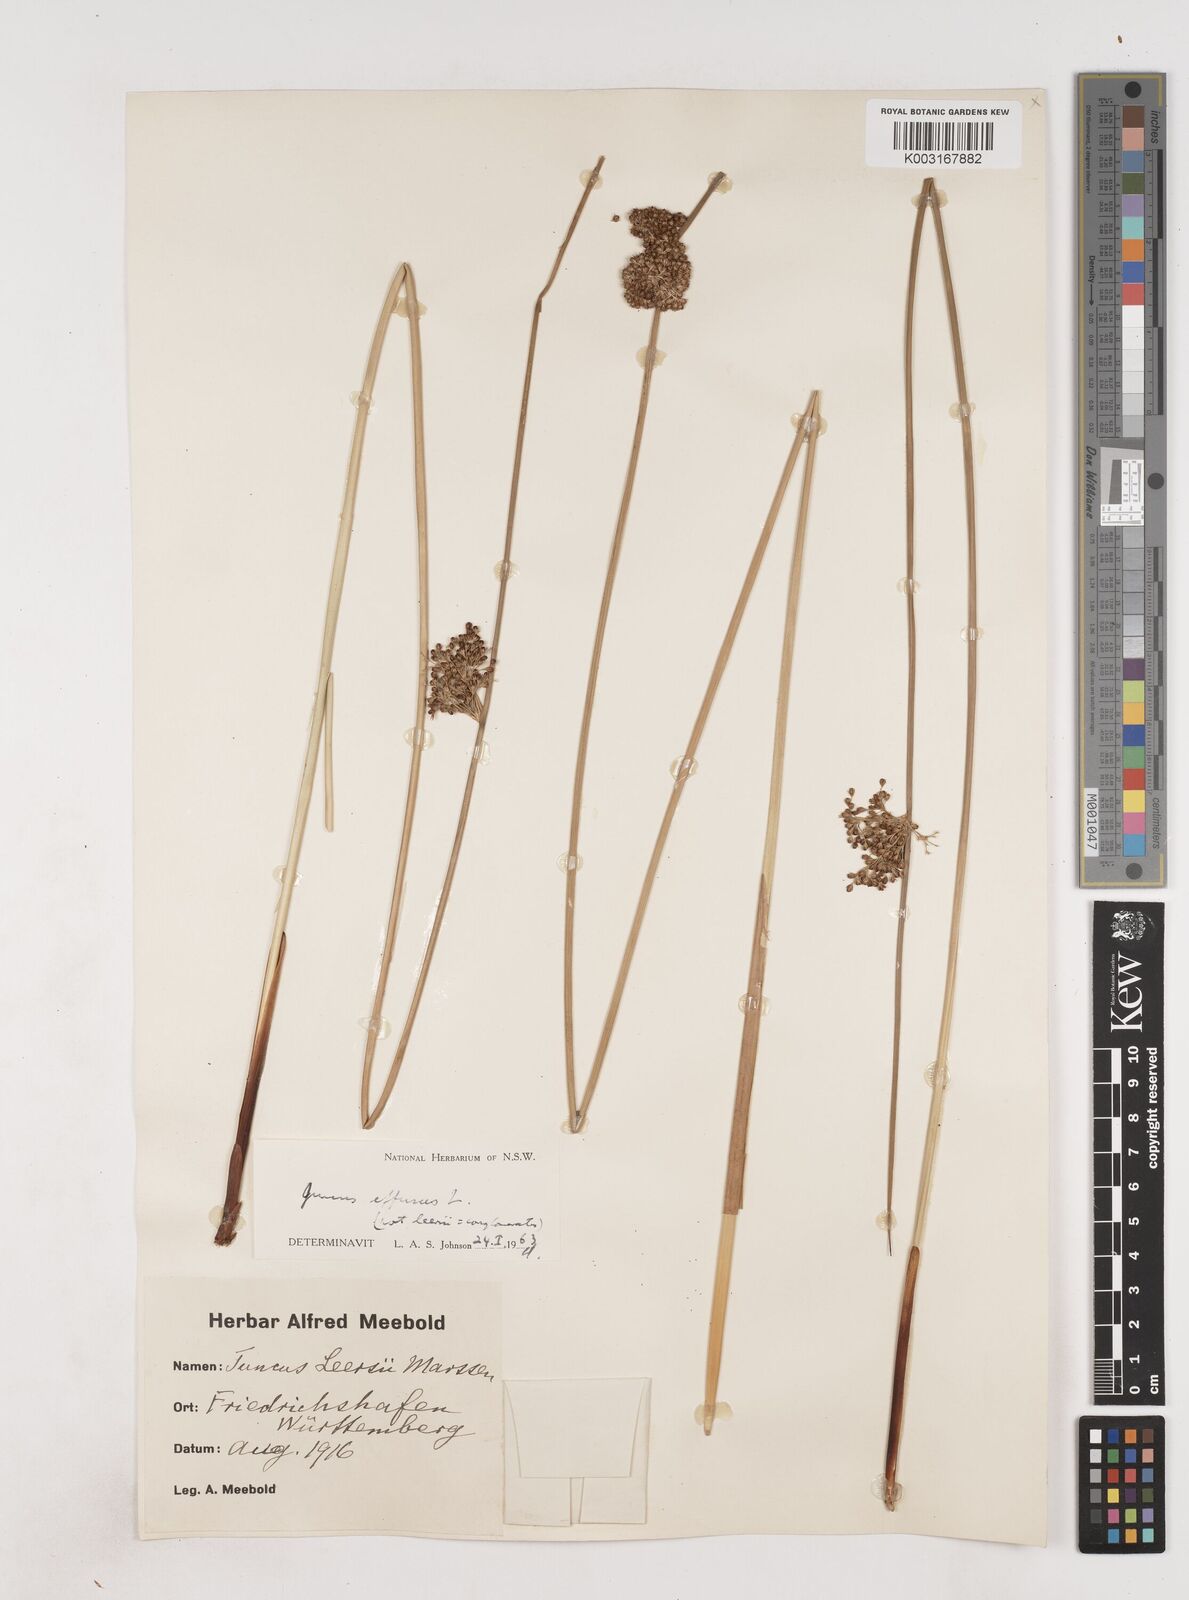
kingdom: Plantae
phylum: Tracheophyta
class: Liliopsida
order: Poales
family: Juncaceae
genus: Juncus
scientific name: Juncus effusus
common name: Soft rush
